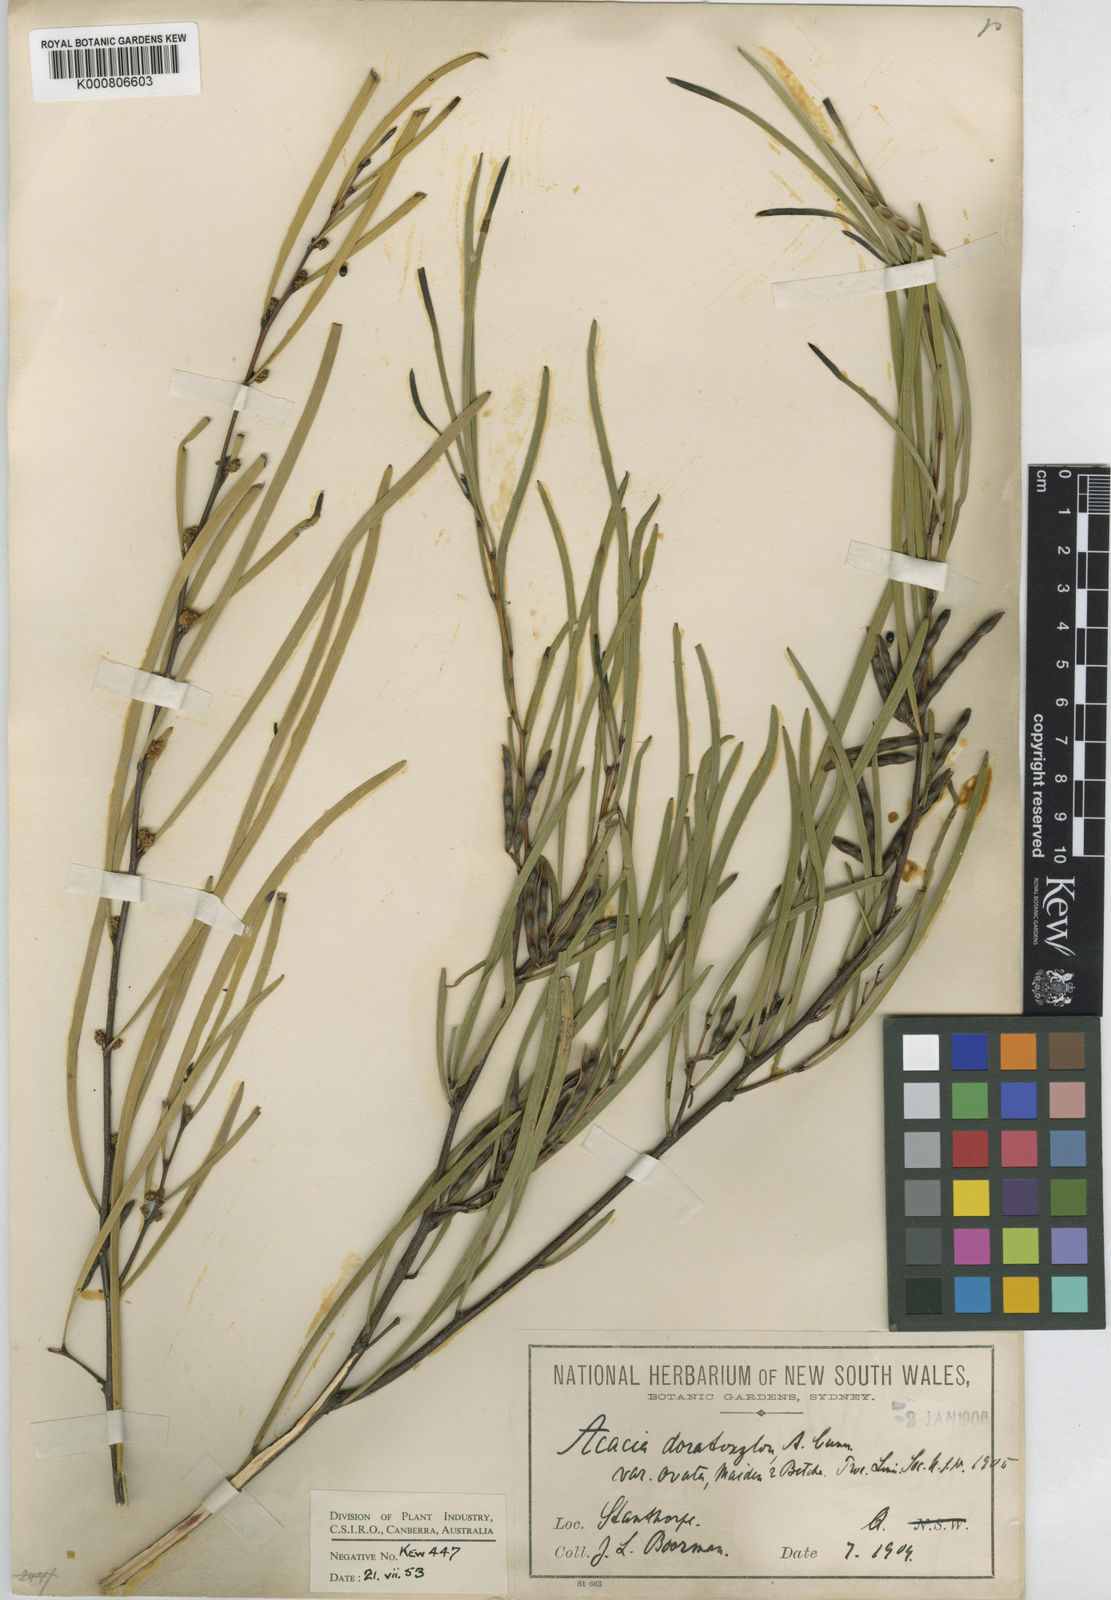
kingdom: Plantae
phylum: Tracheophyta
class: Magnoliopsida
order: Fabales
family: Fabaceae
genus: Acacia
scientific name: Acacia granitica
